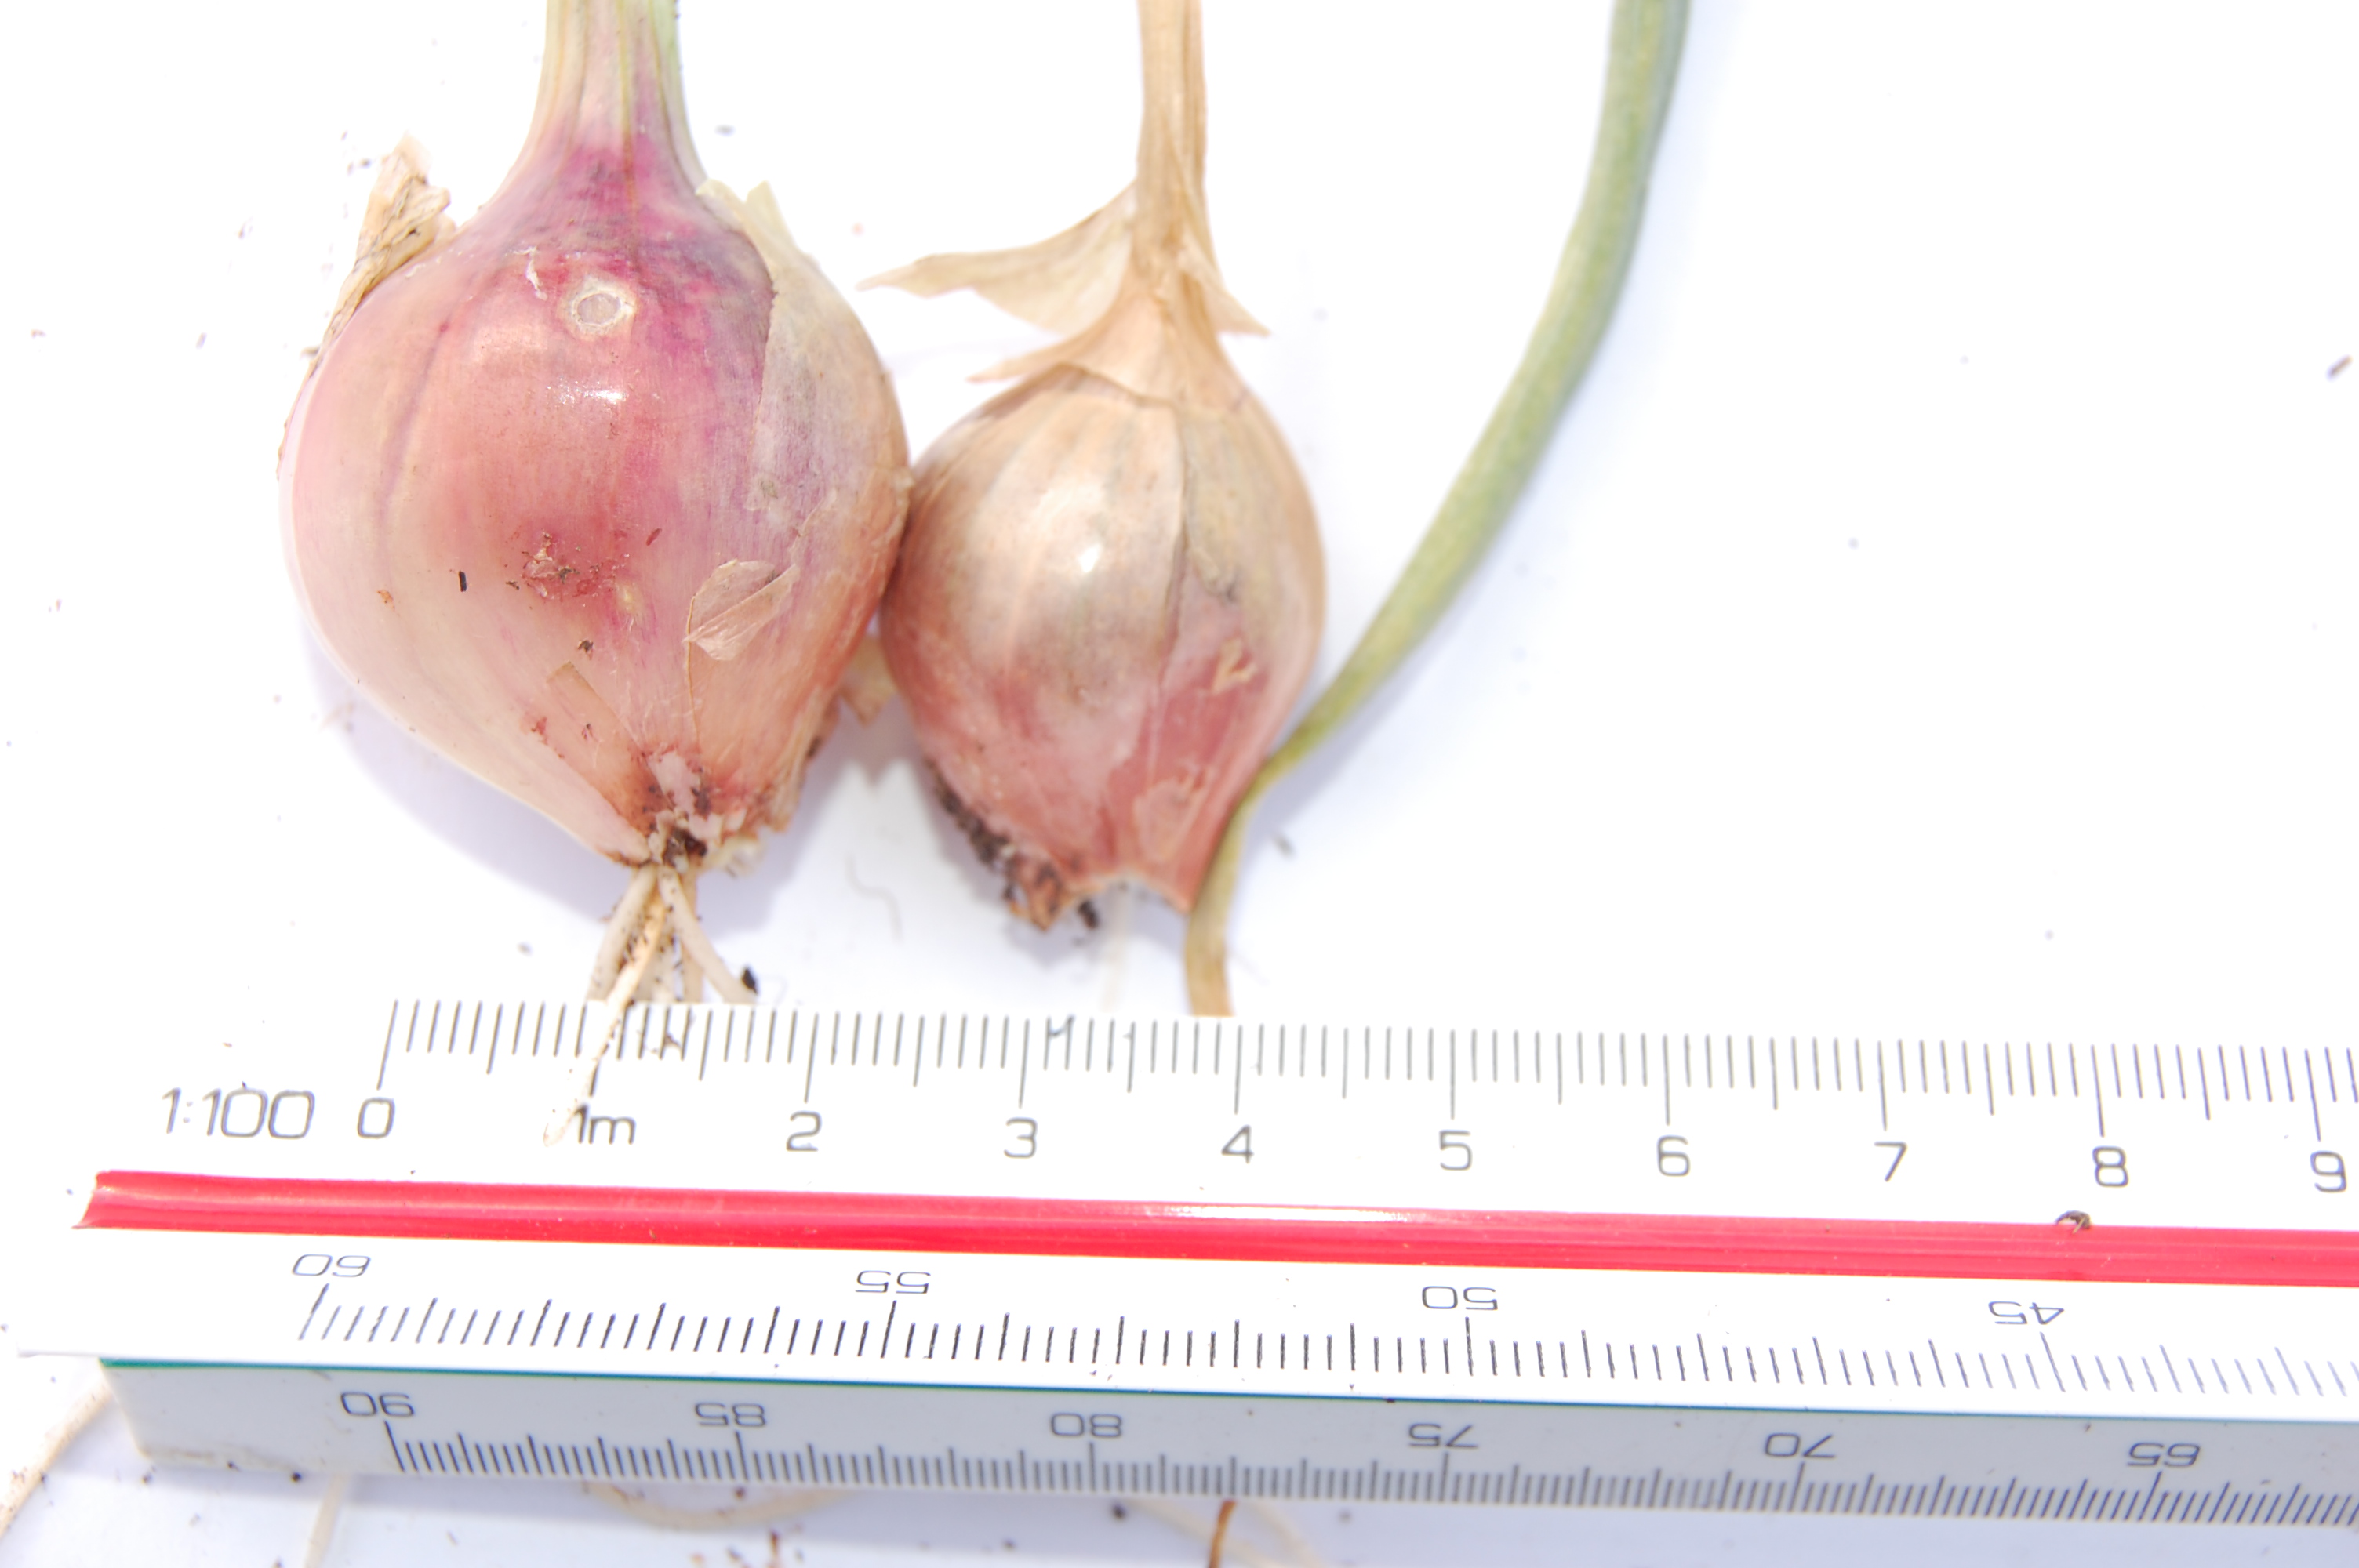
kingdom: Plantae
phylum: Tracheophyta
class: Liliopsida
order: Asparagales
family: Amaryllidaceae
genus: Allium
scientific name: Allium cepa
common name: Onion
